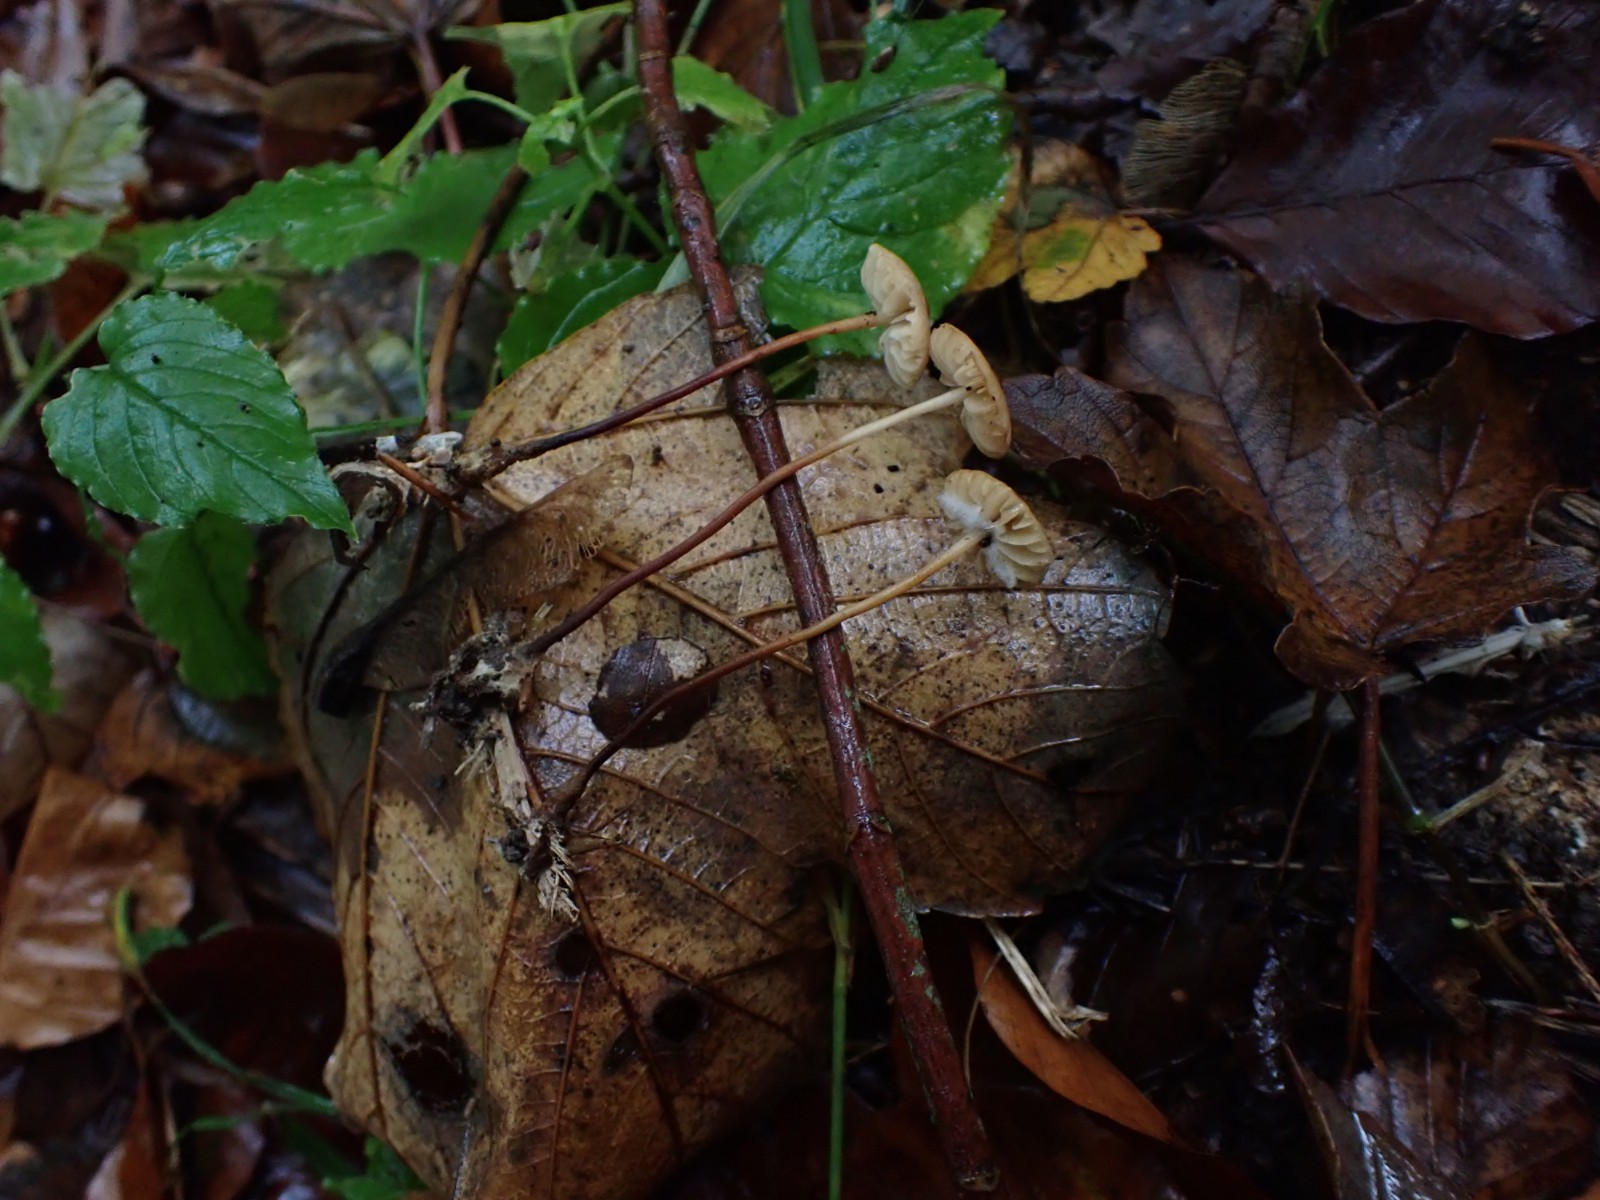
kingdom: Fungi
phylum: Basidiomycota
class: Agaricomycetes
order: Agaricales
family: Marasmiaceae
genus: Marasmius
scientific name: Marasmius torquescens
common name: filtfodet bruskhat
